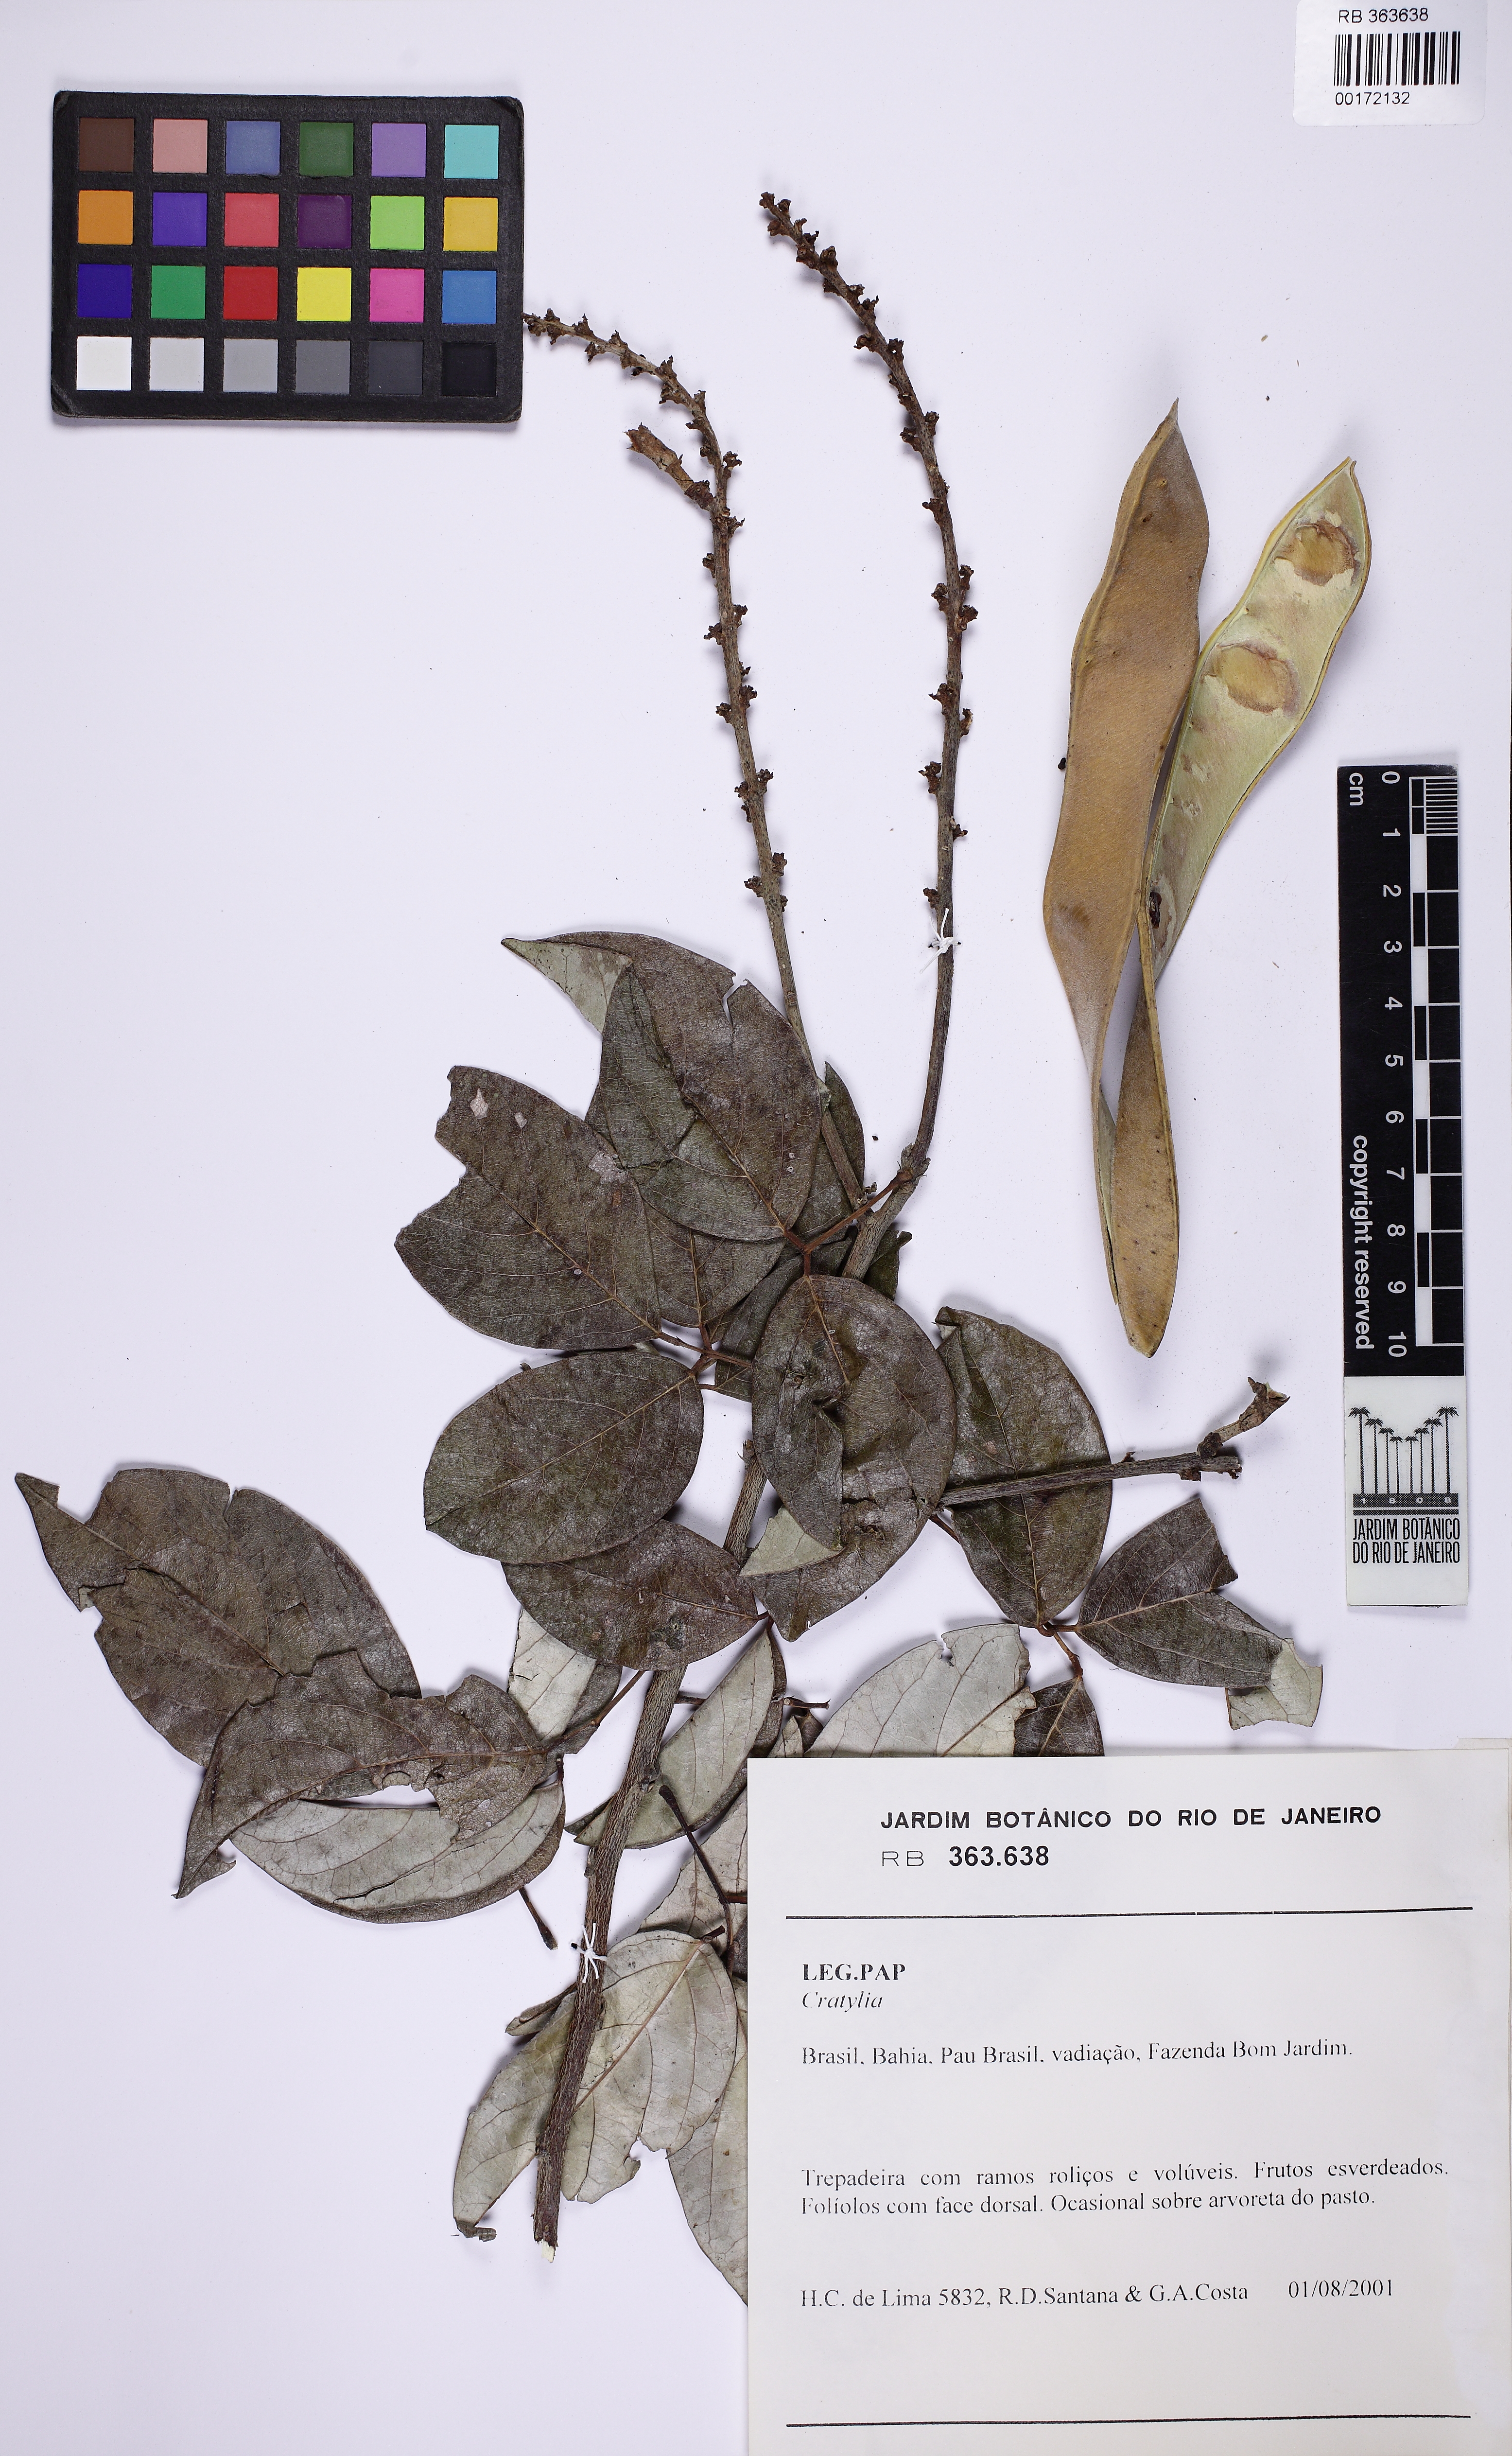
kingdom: Plantae
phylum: Tracheophyta
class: Magnoliopsida
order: Fabales
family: Fabaceae
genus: Cratylia
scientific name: Cratylia
